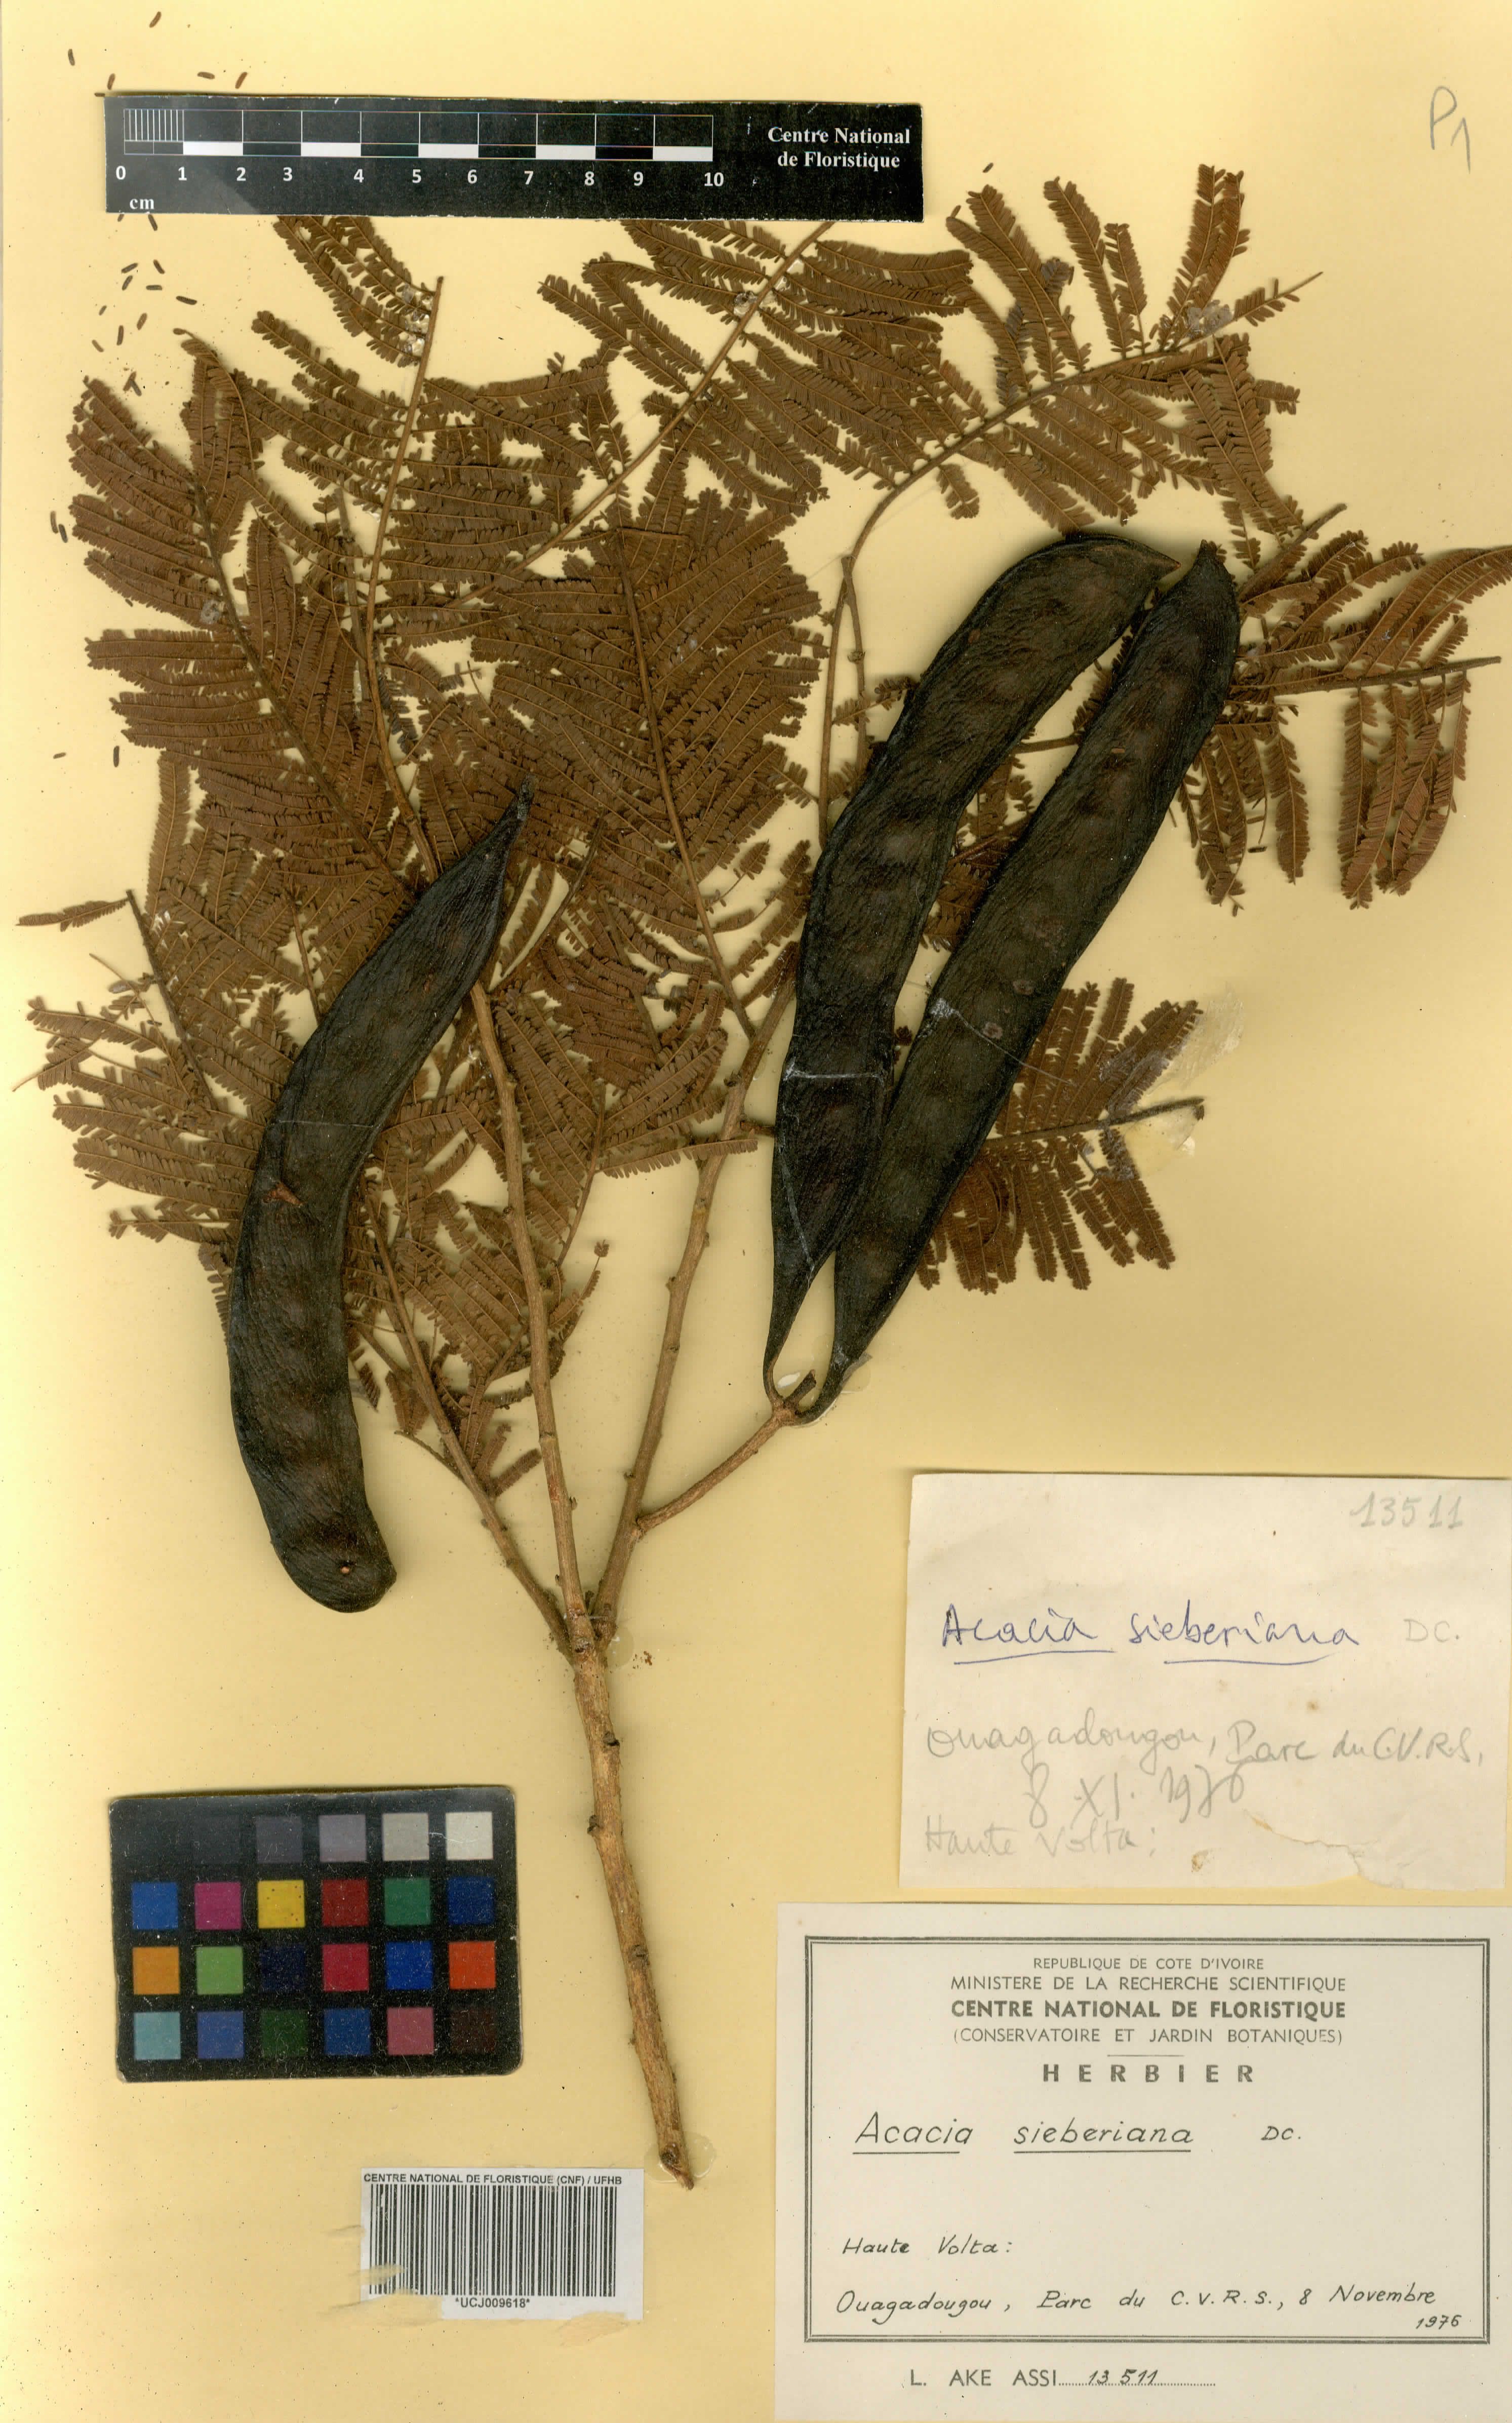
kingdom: Plantae
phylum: Tracheophyta
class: Magnoliopsida
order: Fabales
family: Fabaceae
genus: Vachellia
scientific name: Vachellia sieberiana
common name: Flat-topped thorn
